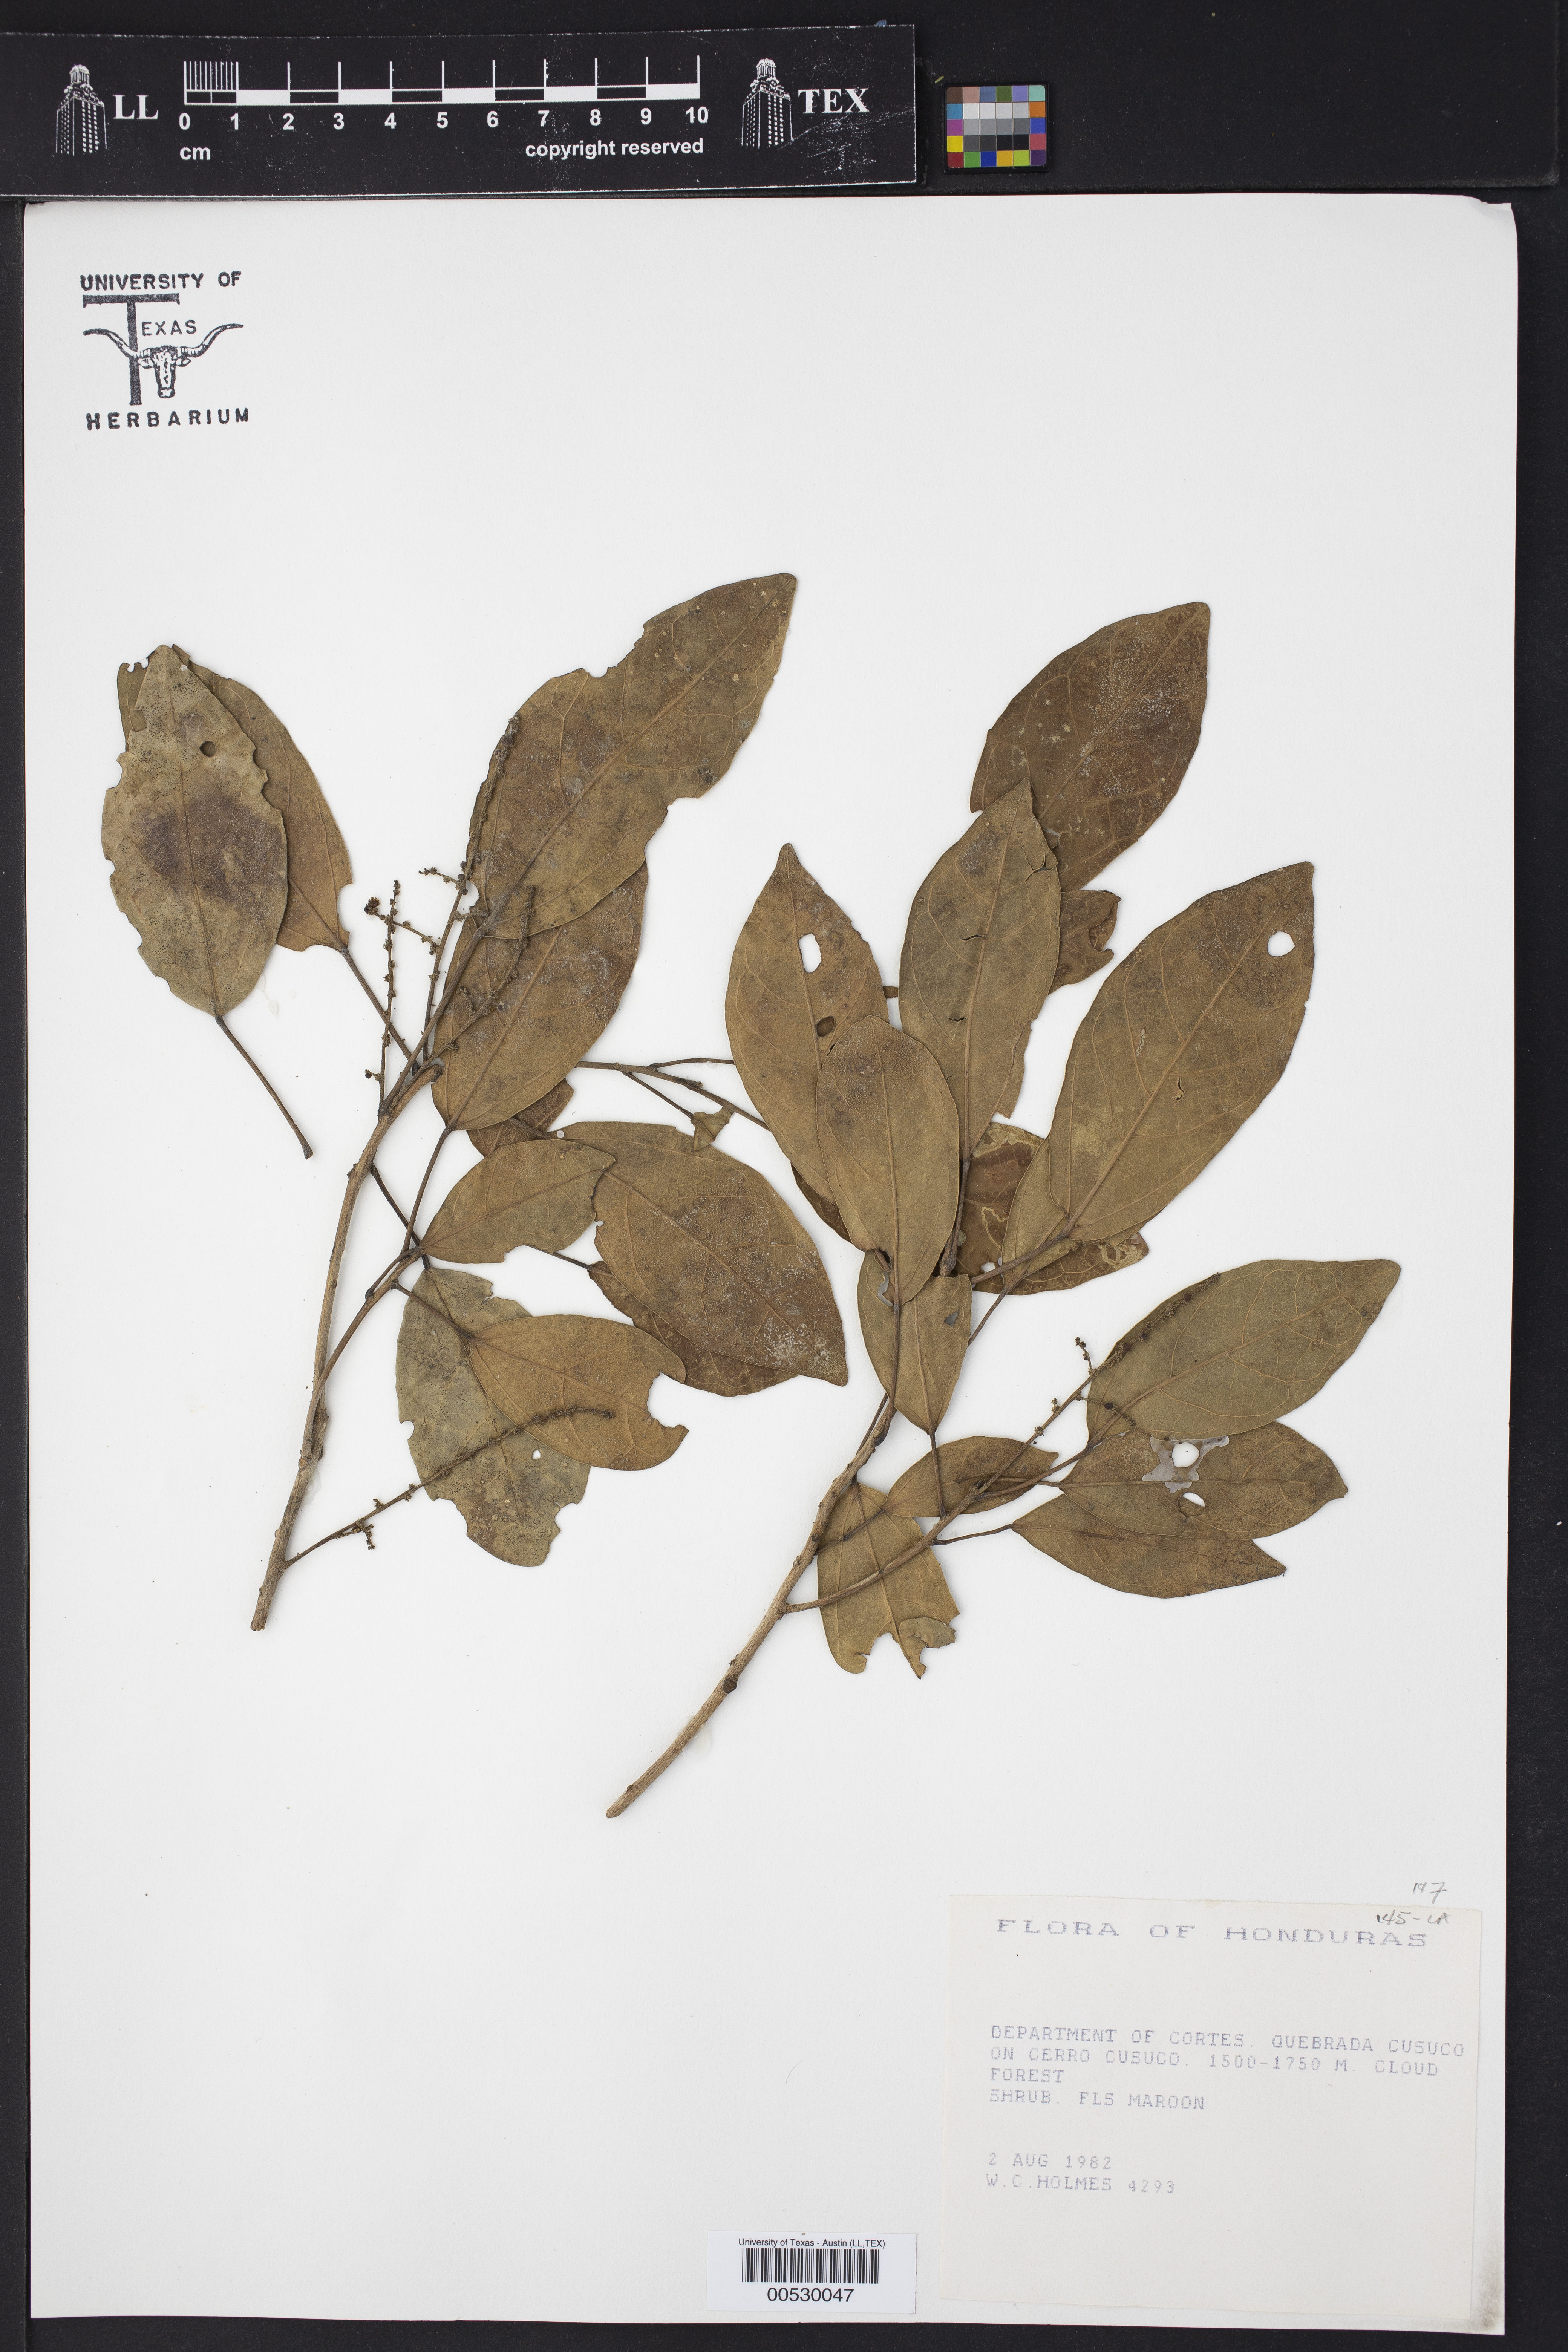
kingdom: Plantae
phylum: Tracheophyta
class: Magnoliopsida
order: Malpighiales
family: Euphorbiaceae
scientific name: Euphorbiaceae
